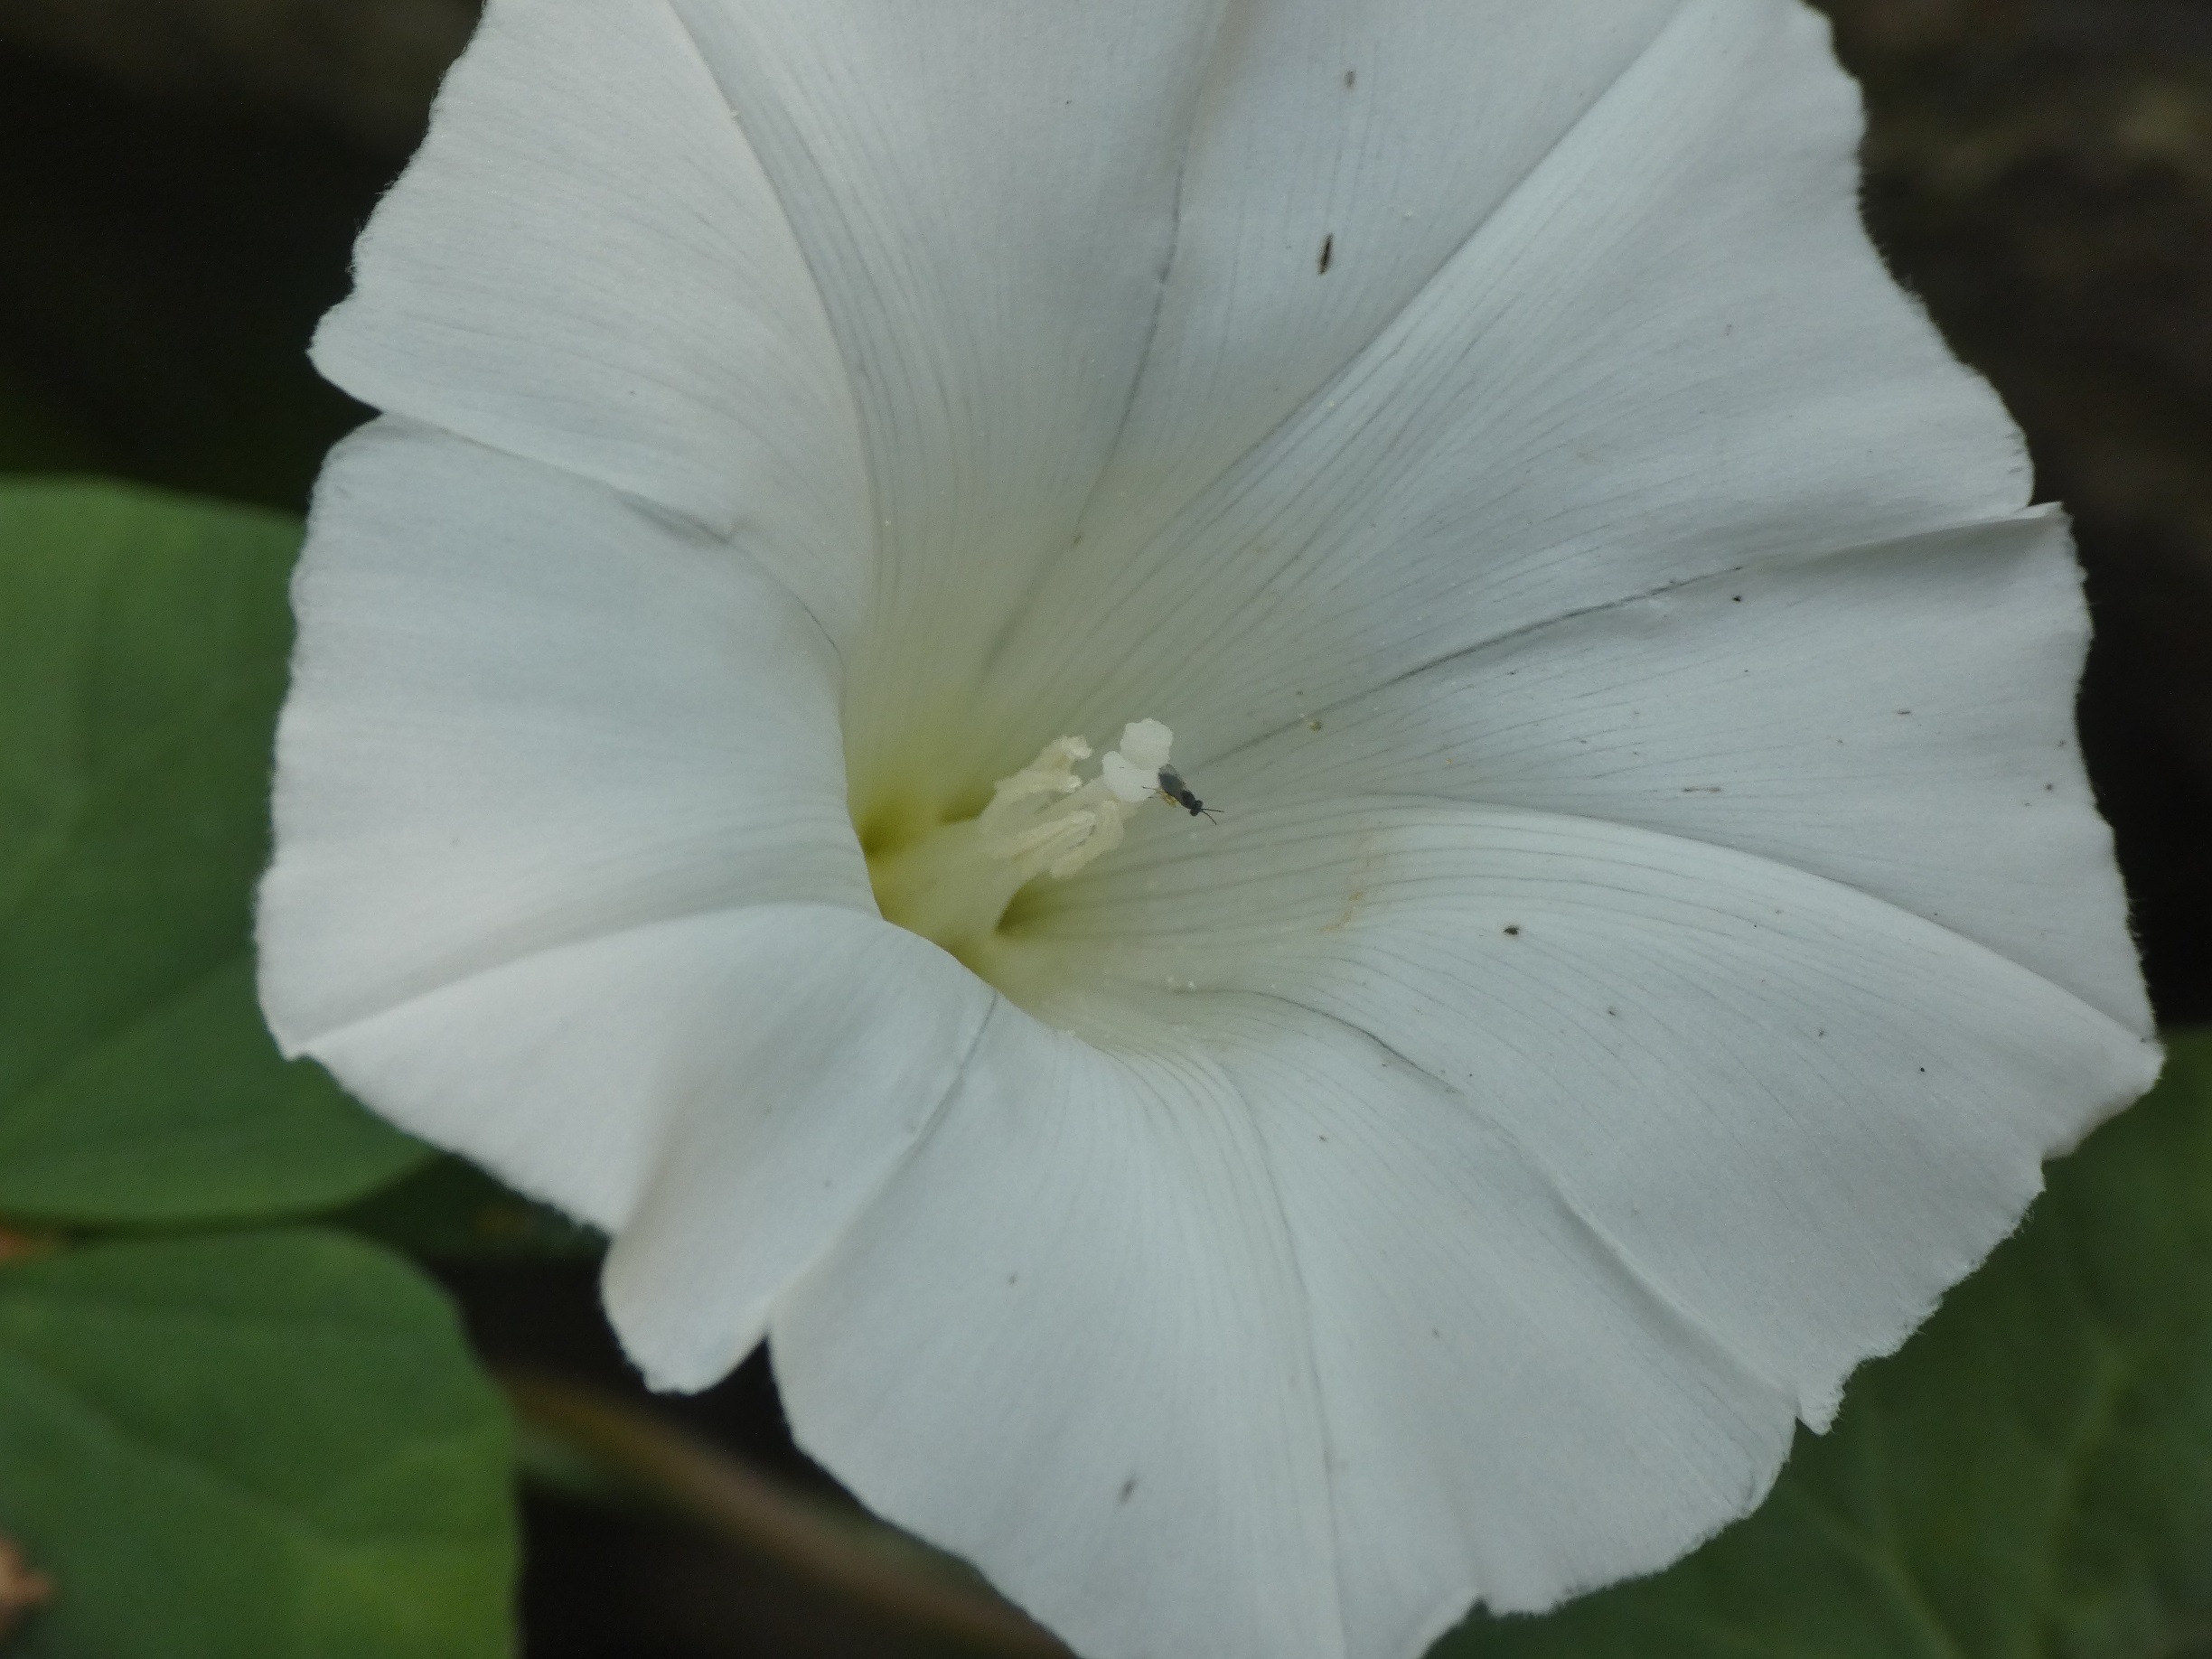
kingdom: Plantae
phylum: Tracheophyta
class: Magnoliopsida
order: Solanales
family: Convolvulaceae
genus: Calystegia
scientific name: Calystegia sepium
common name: Gærde-snerle
